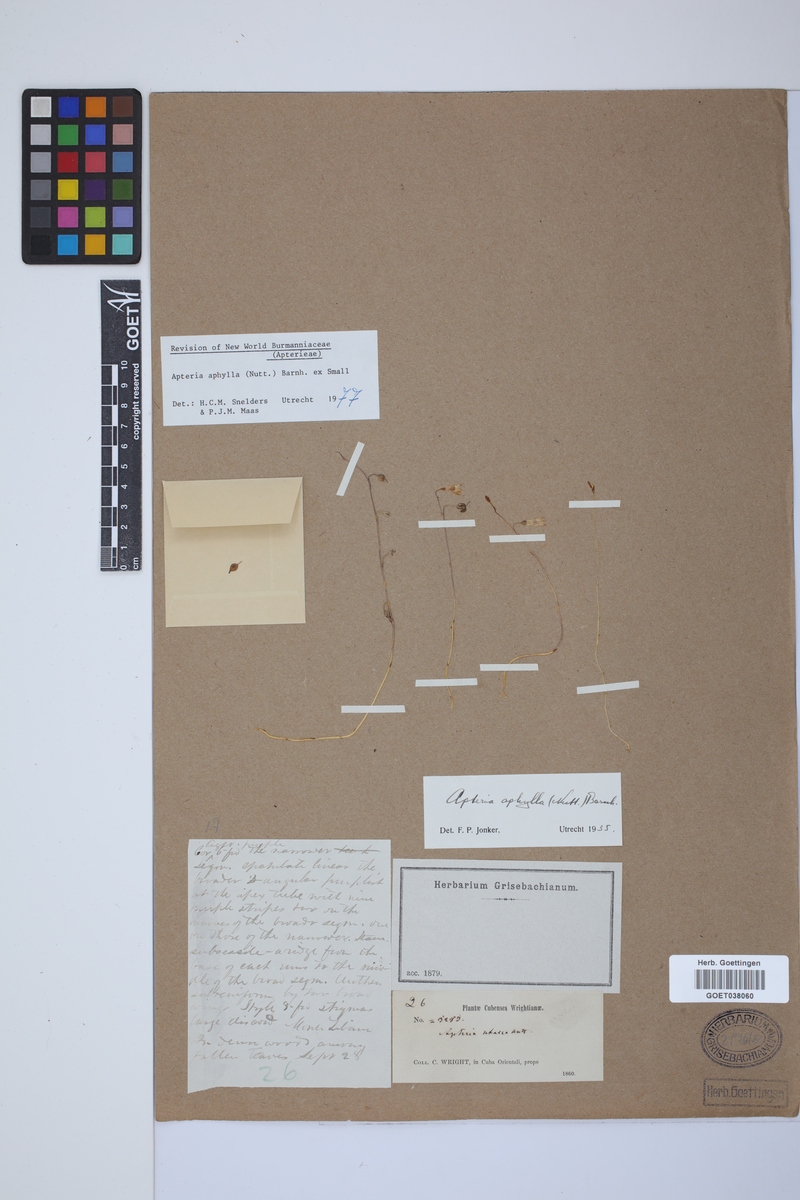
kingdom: Plantae
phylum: Tracheophyta
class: Liliopsida
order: Dioscoreales
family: Burmanniaceae
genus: Apteria
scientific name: Apteria aphylla
